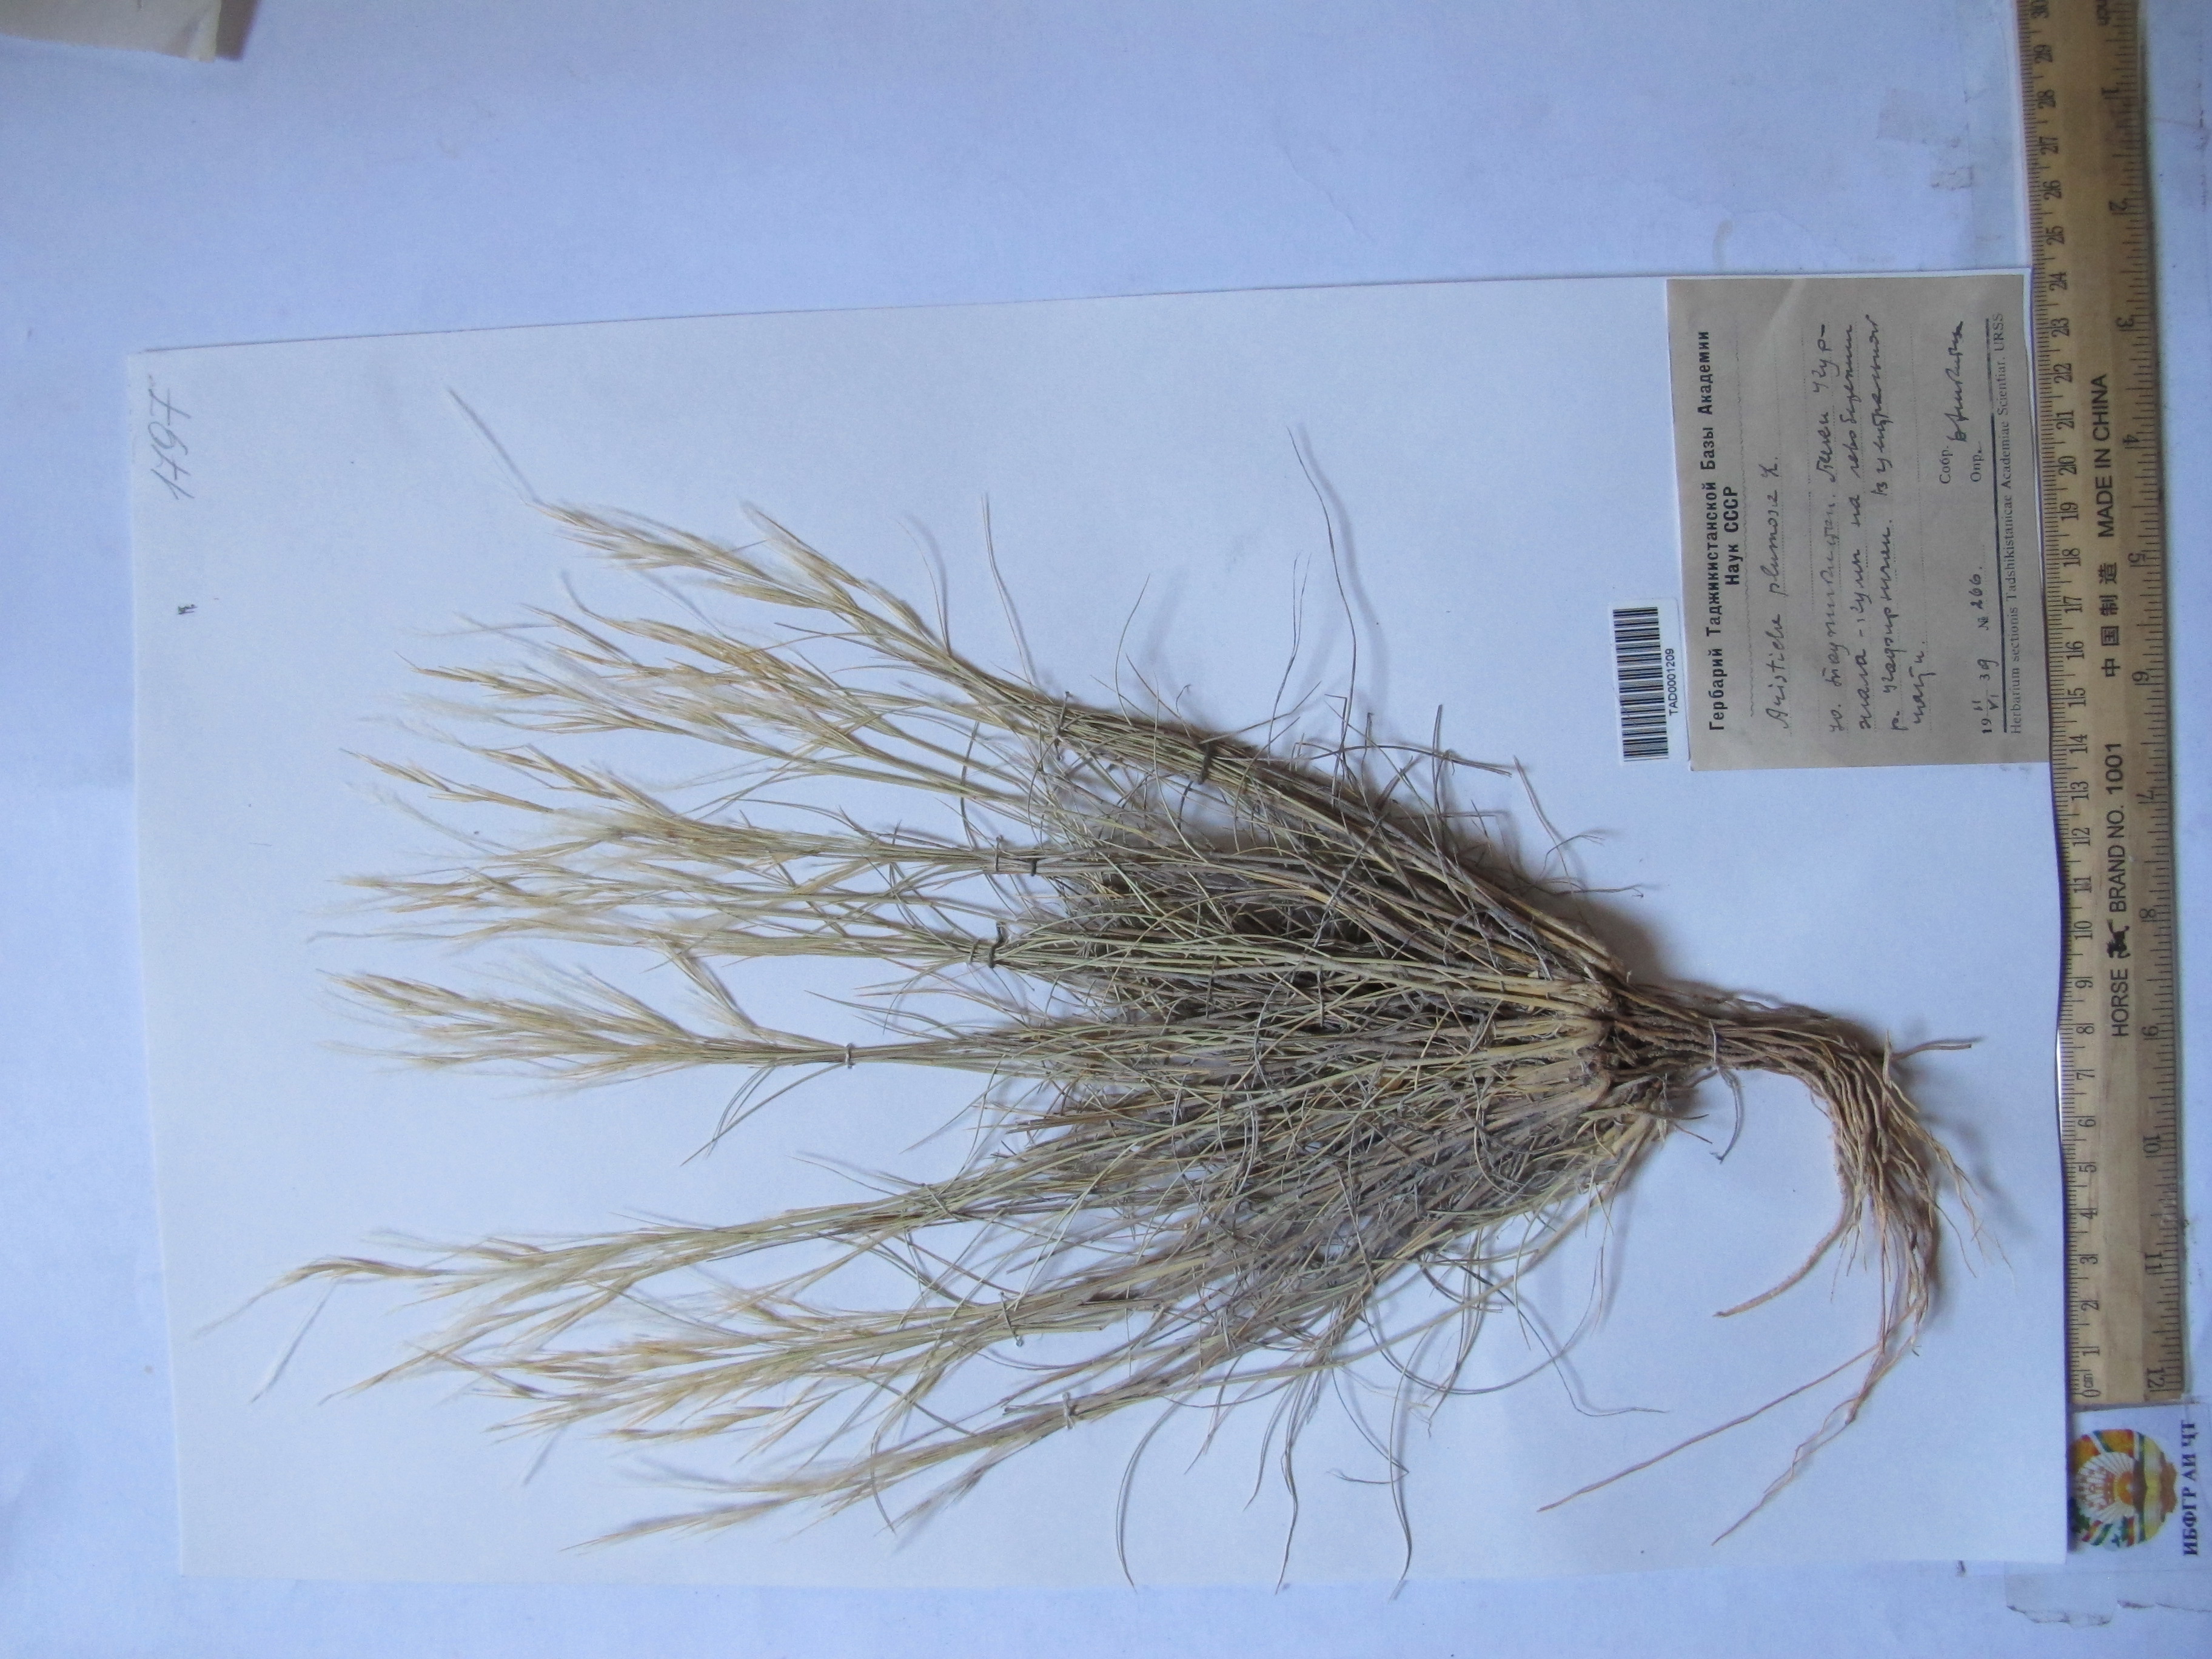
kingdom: Plantae
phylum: Tracheophyta
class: Liliopsida
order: Poales
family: Poaceae
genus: Stipagrostis
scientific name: Stipagrostis plumosa
